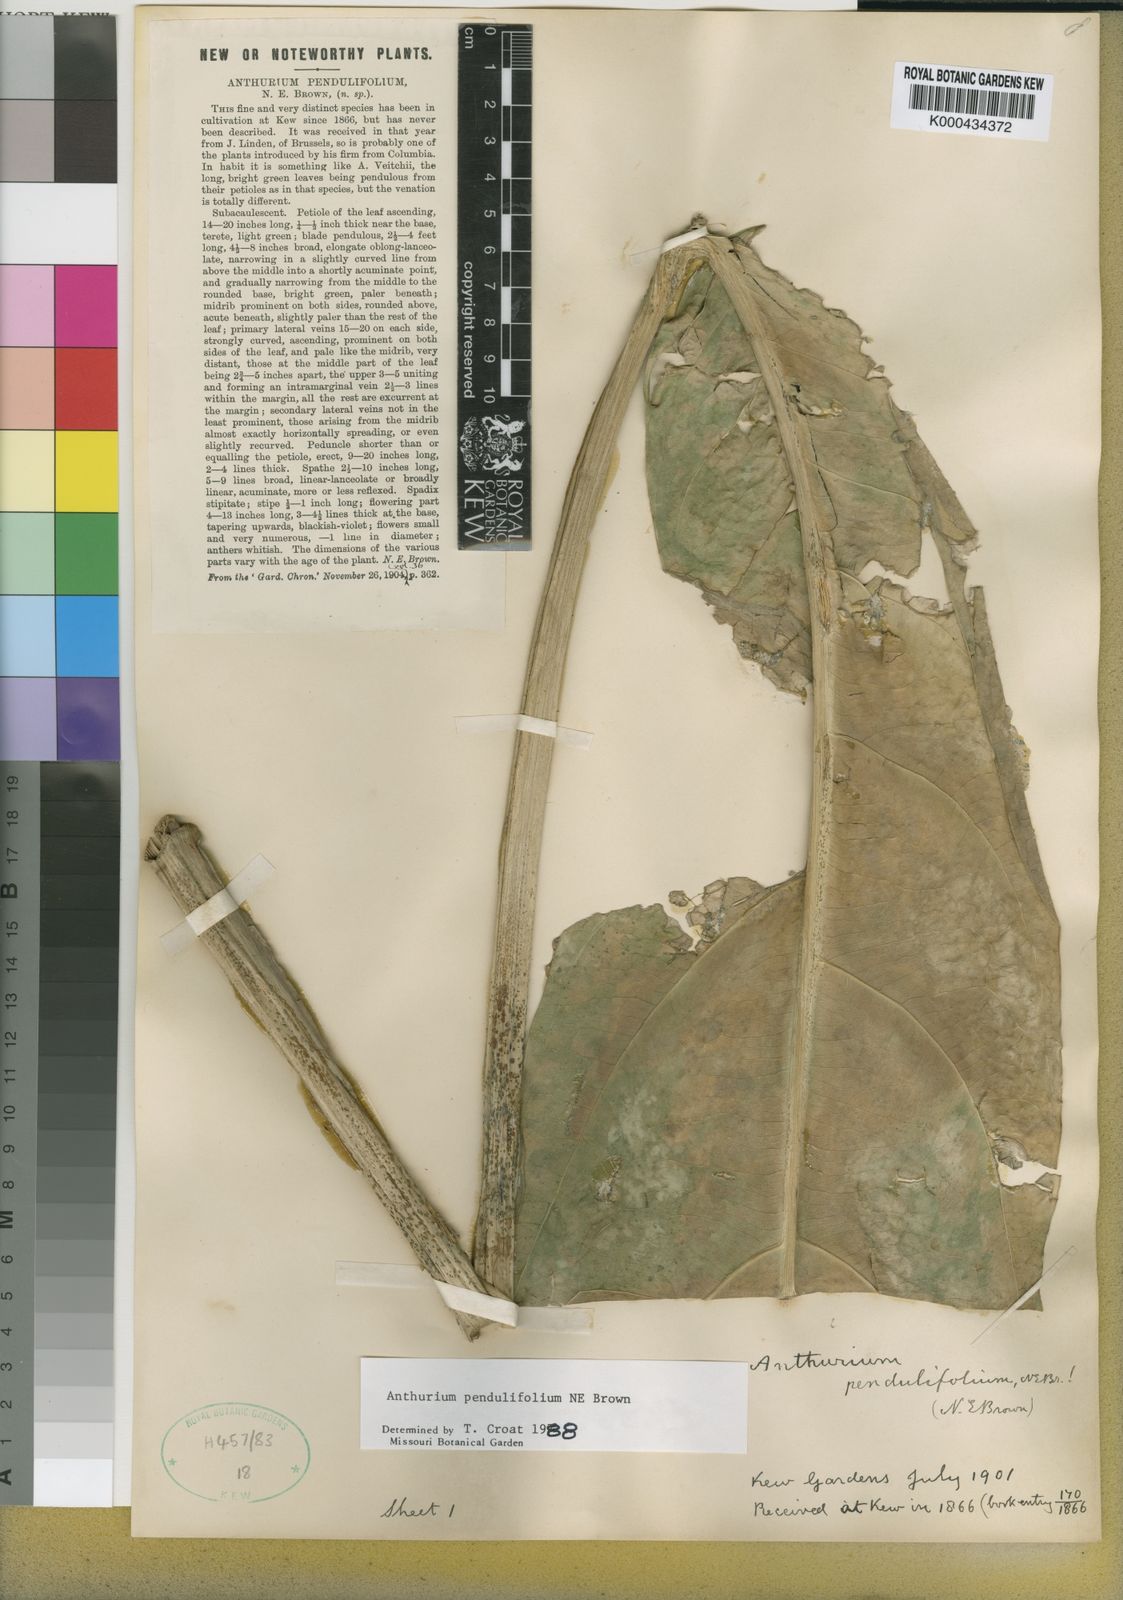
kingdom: Plantae
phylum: Tracheophyta
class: Liliopsida
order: Alismatales
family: Araceae
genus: Anthurium
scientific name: Anthurium pendulifolium
